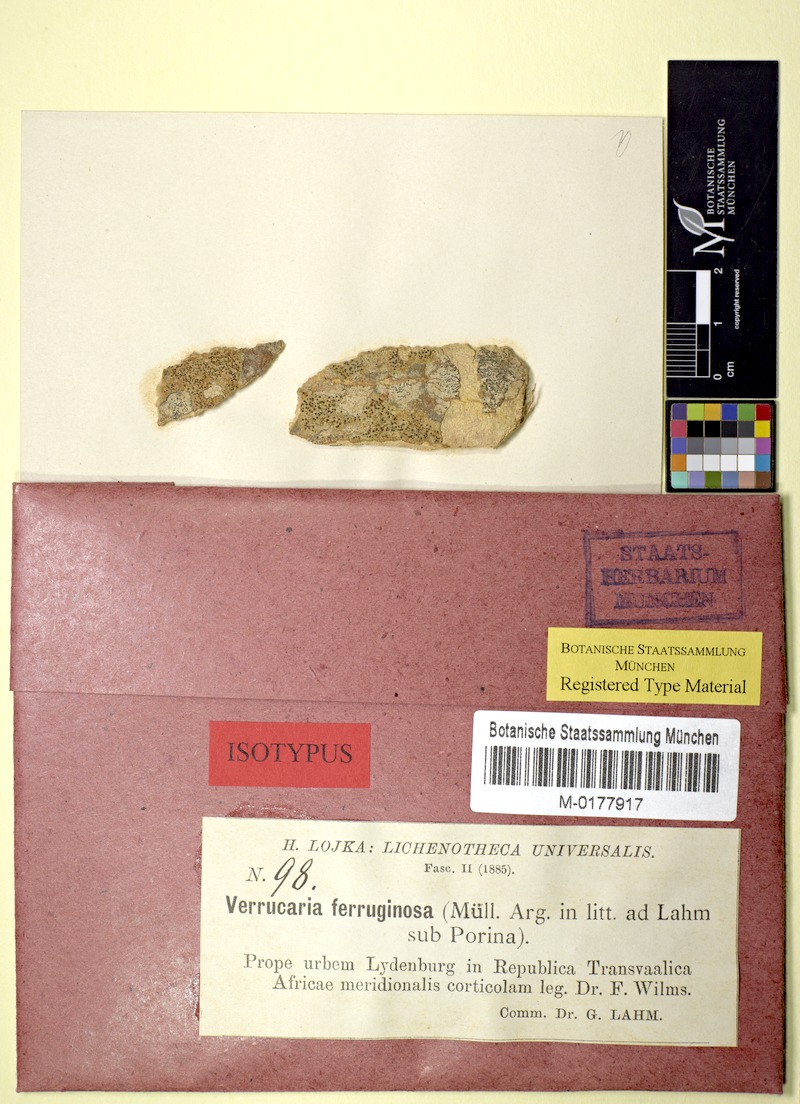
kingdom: Fungi
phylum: Ascomycota
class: Eurotiomycetes
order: Pyrenulales
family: Pyrenulaceae
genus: Pyrenowilmsia
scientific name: Pyrenowilmsia ferruginosa
